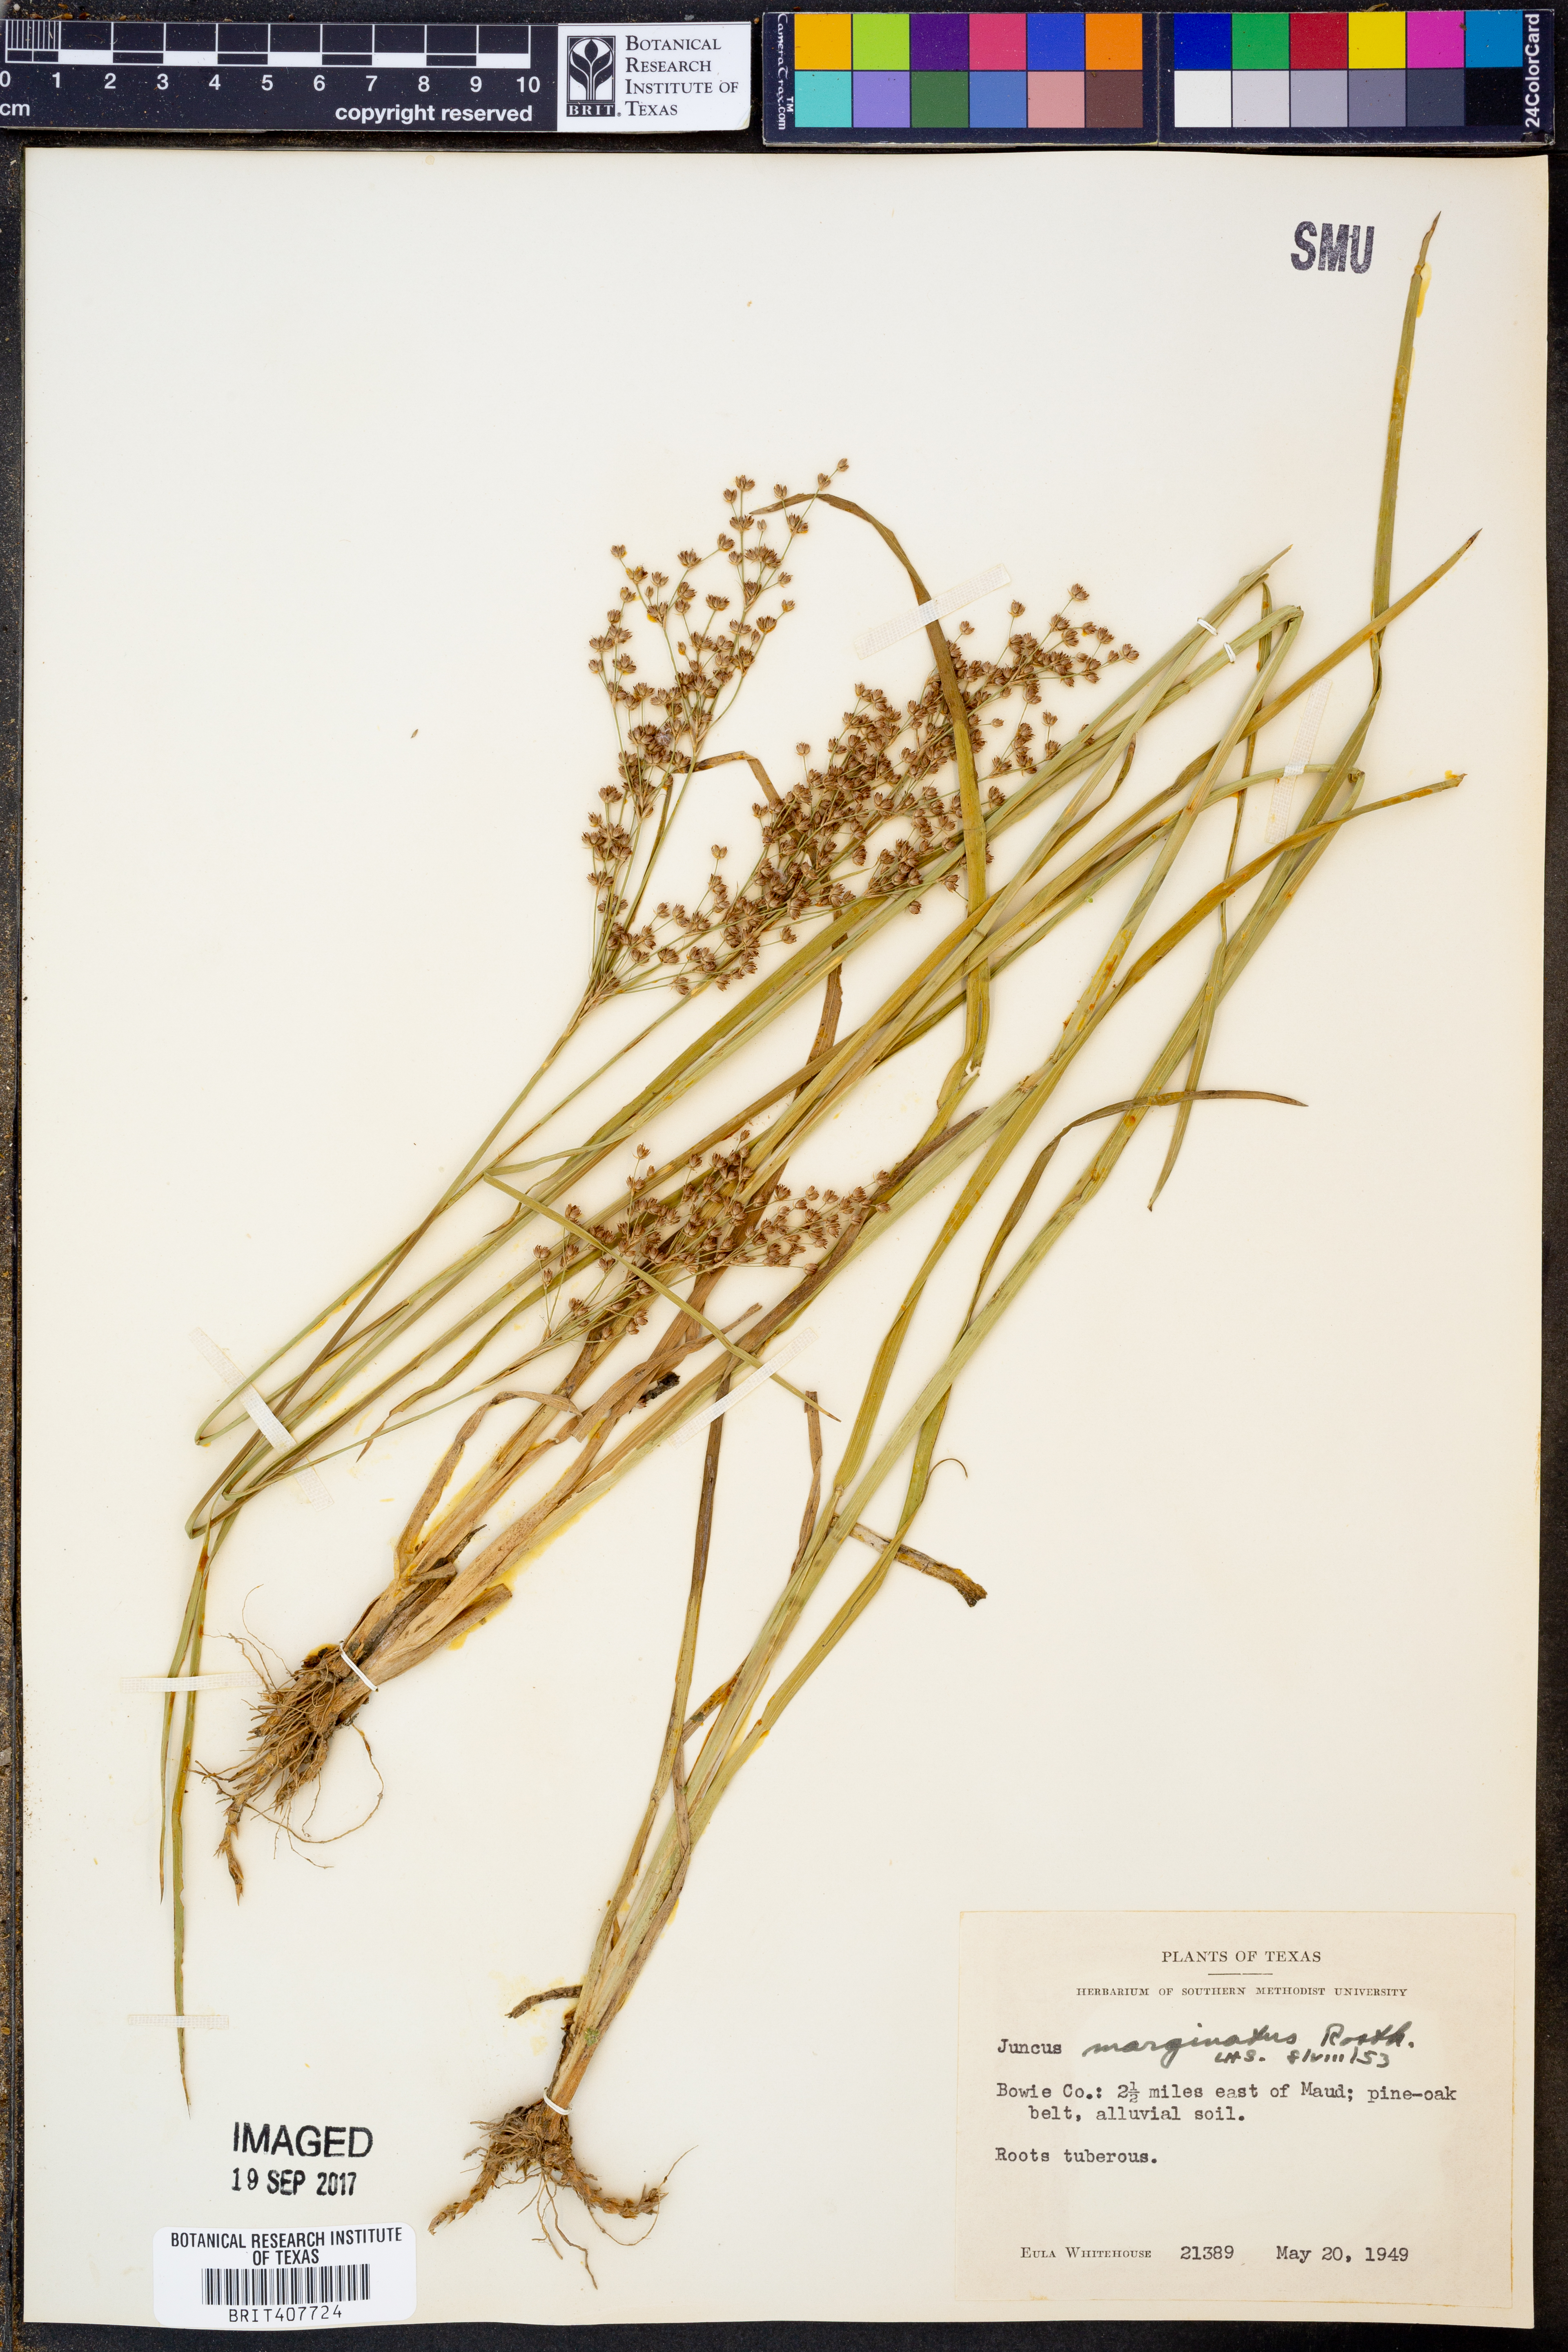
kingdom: Plantae
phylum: Tracheophyta
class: Liliopsida
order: Poales
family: Juncaceae
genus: Juncus
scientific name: Juncus marginatus
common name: Grass-leaf rush
